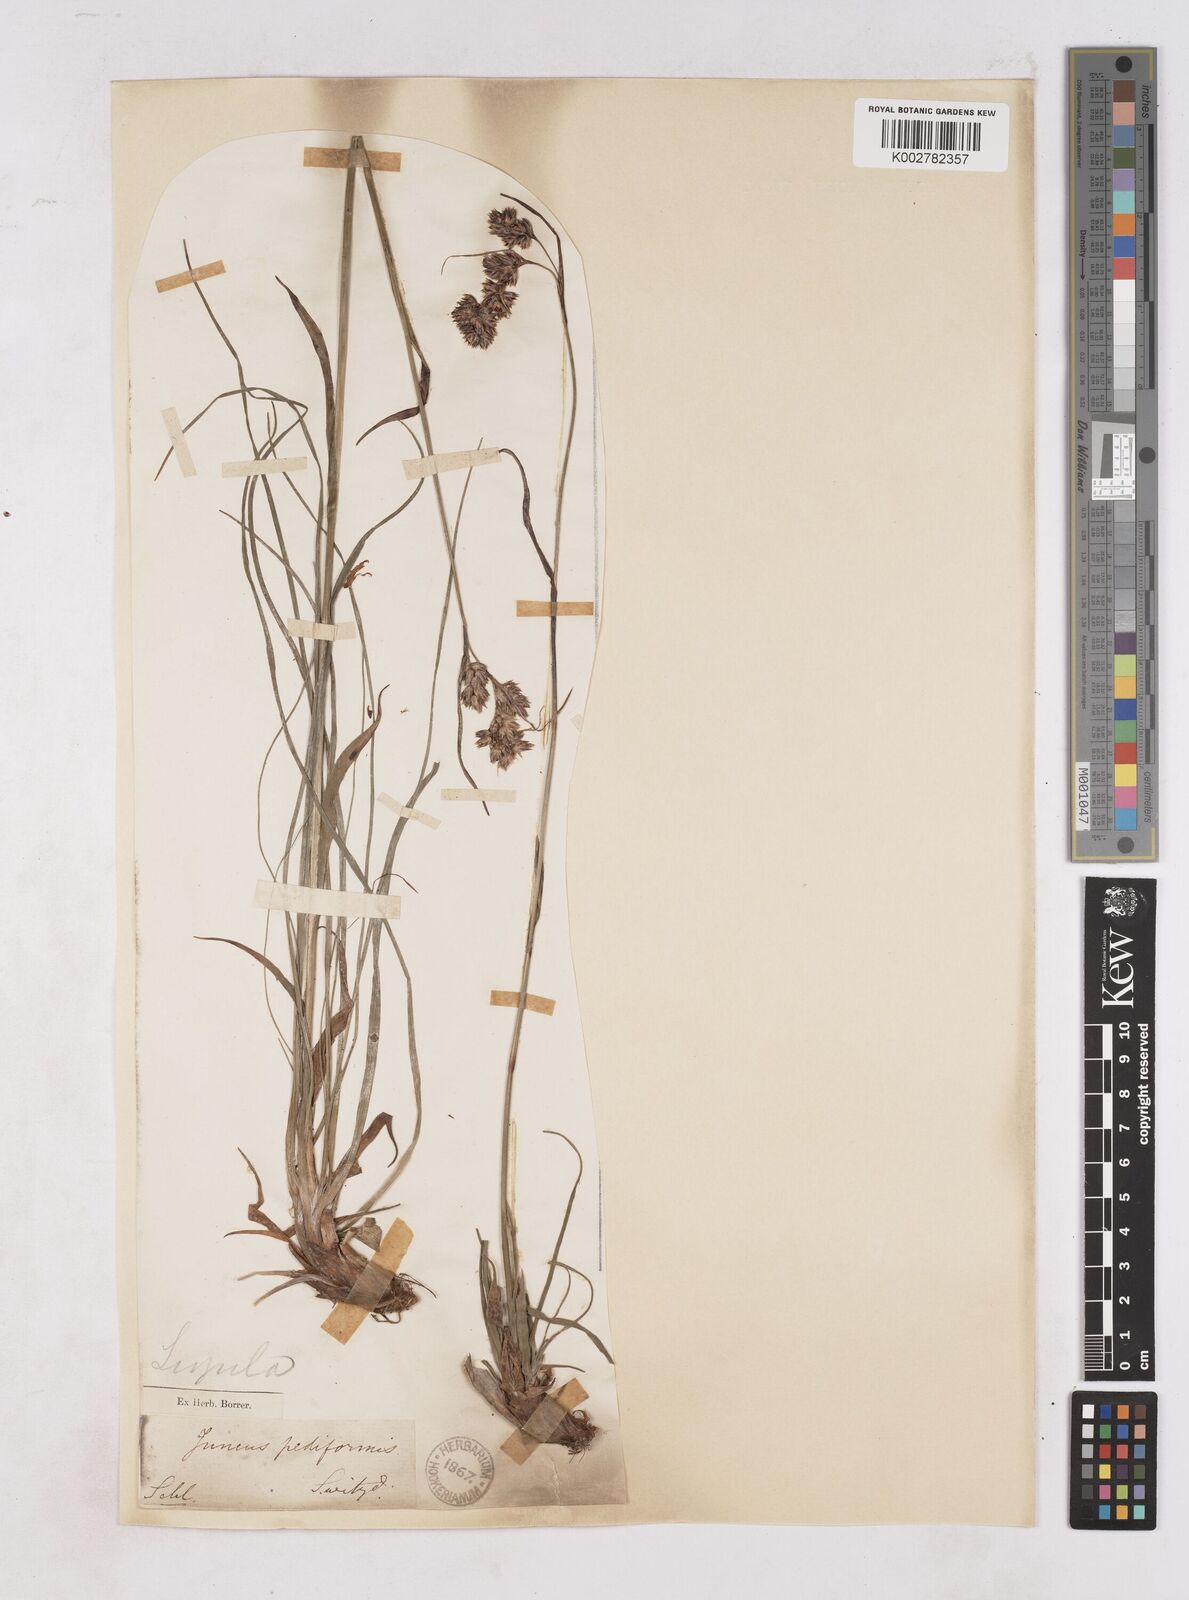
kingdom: Plantae
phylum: Tracheophyta
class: Liliopsida
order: Poales
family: Juncaceae
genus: Luzula
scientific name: Luzula pediformis
